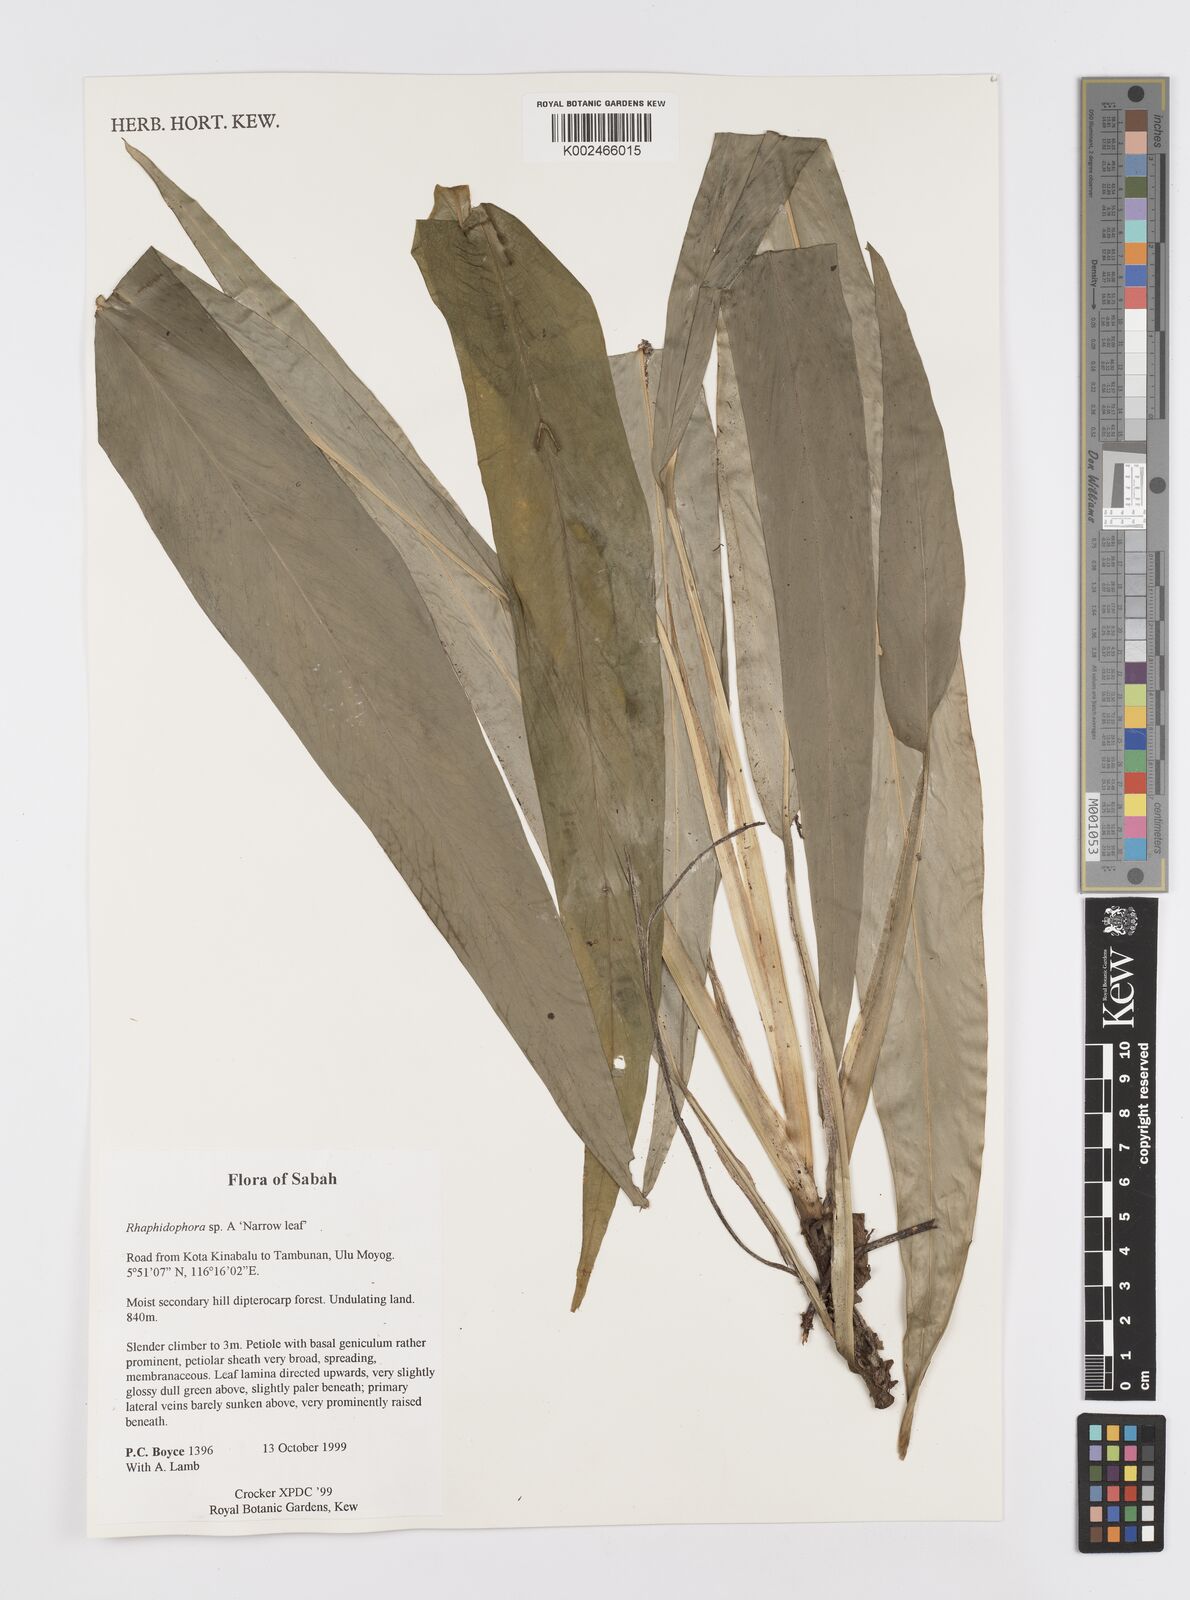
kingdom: Plantae
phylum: Tracheophyta
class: Liliopsida
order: Alismatales
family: Araceae
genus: Rhaphidophora
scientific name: Rhaphidophora
